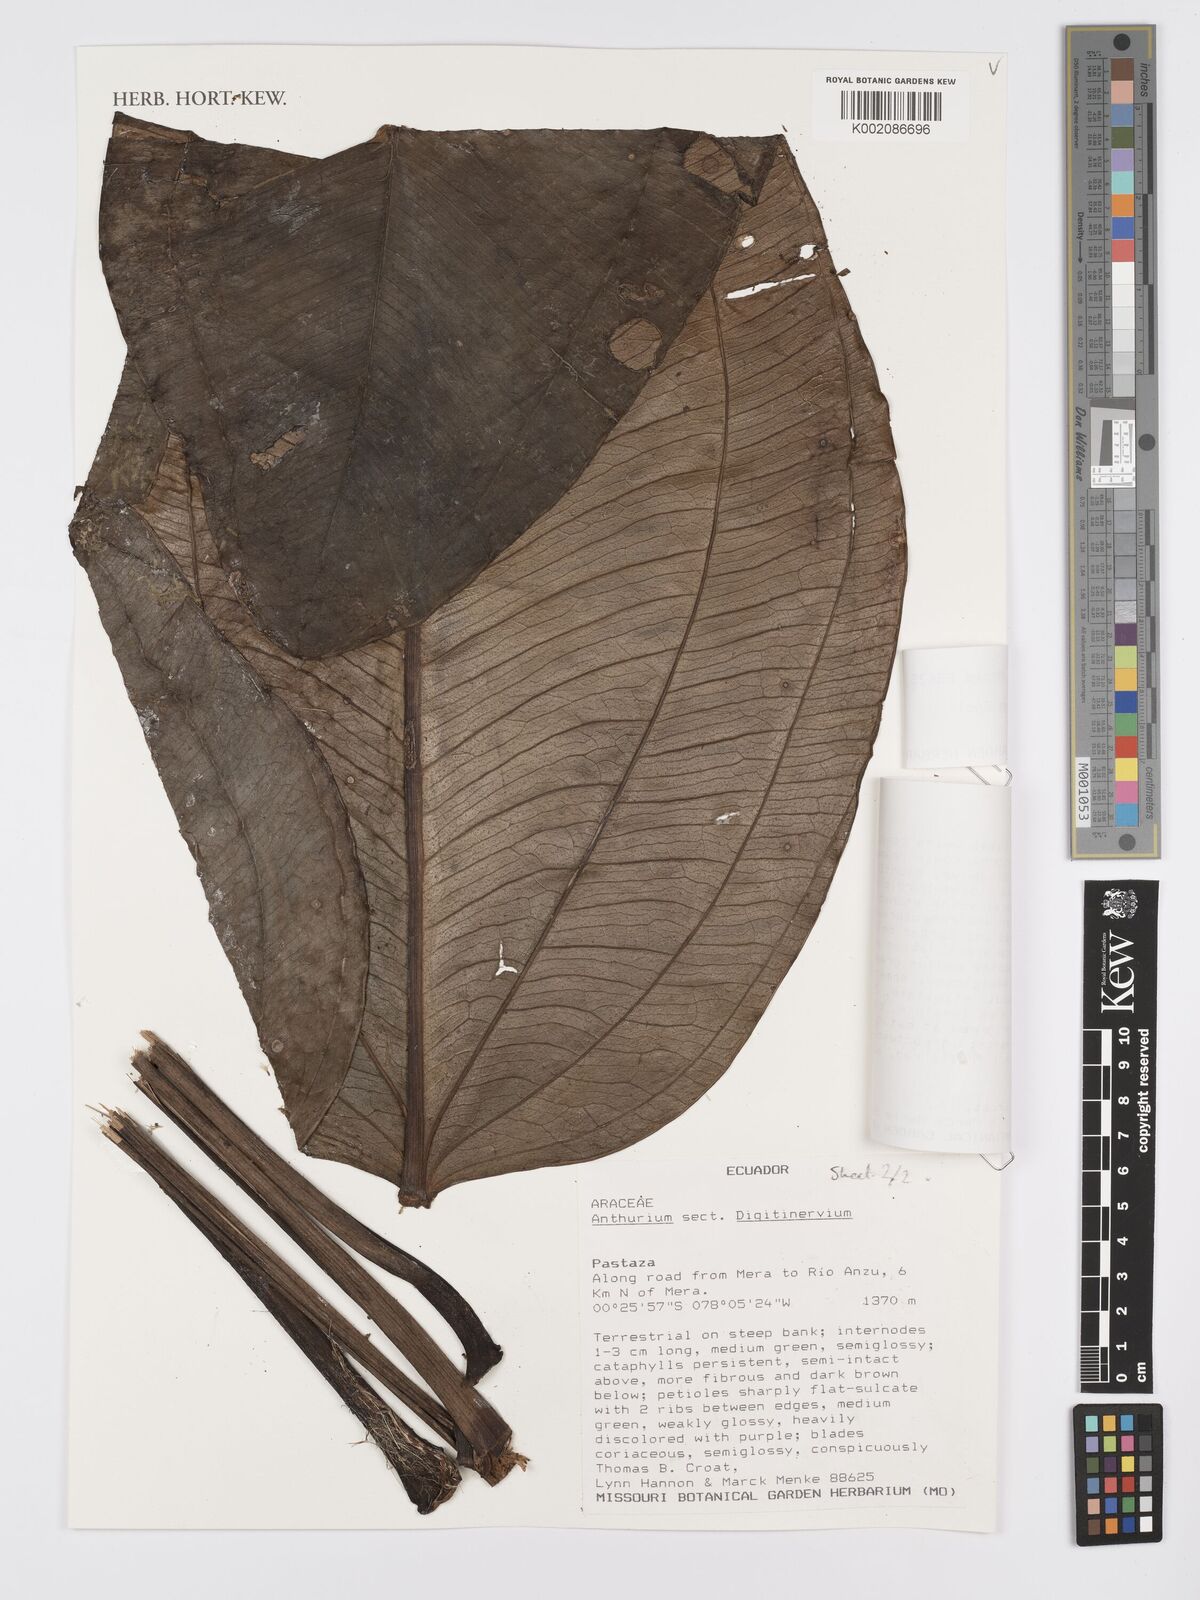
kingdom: Plantae
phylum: Tracheophyta
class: Liliopsida
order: Alismatales
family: Araceae
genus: Anthurium
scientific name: Anthurium ovatifolium
